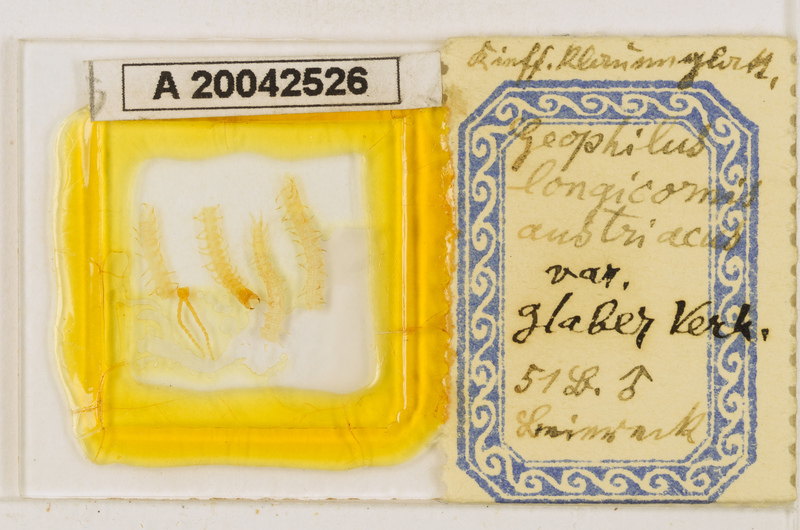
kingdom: Animalia
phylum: Arthropoda
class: Chilopoda
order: Geophilomorpha
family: Geophilidae
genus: Geophilus
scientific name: Geophilus flavus
